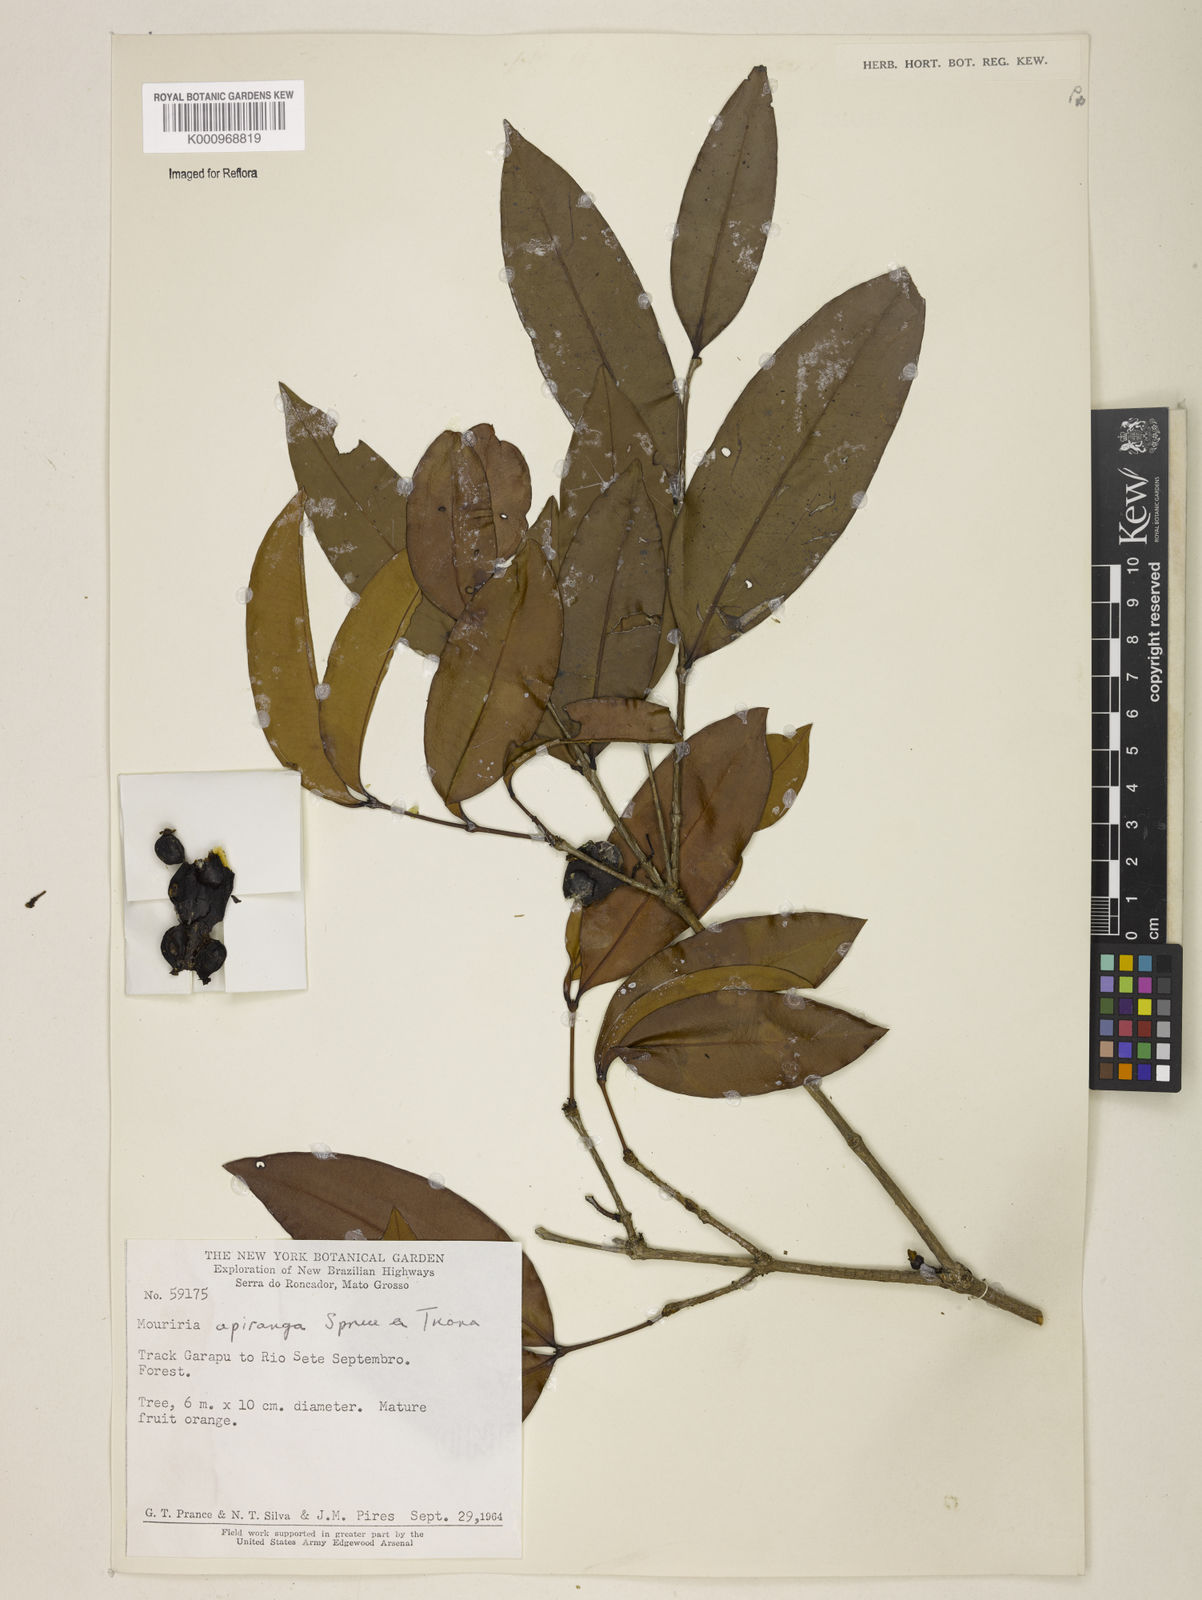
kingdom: Plantae
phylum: Tracheophyta
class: Magnoliopsida
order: Myrtales
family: Melastomataceae
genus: Mouriri
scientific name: Mouriri apiranga
